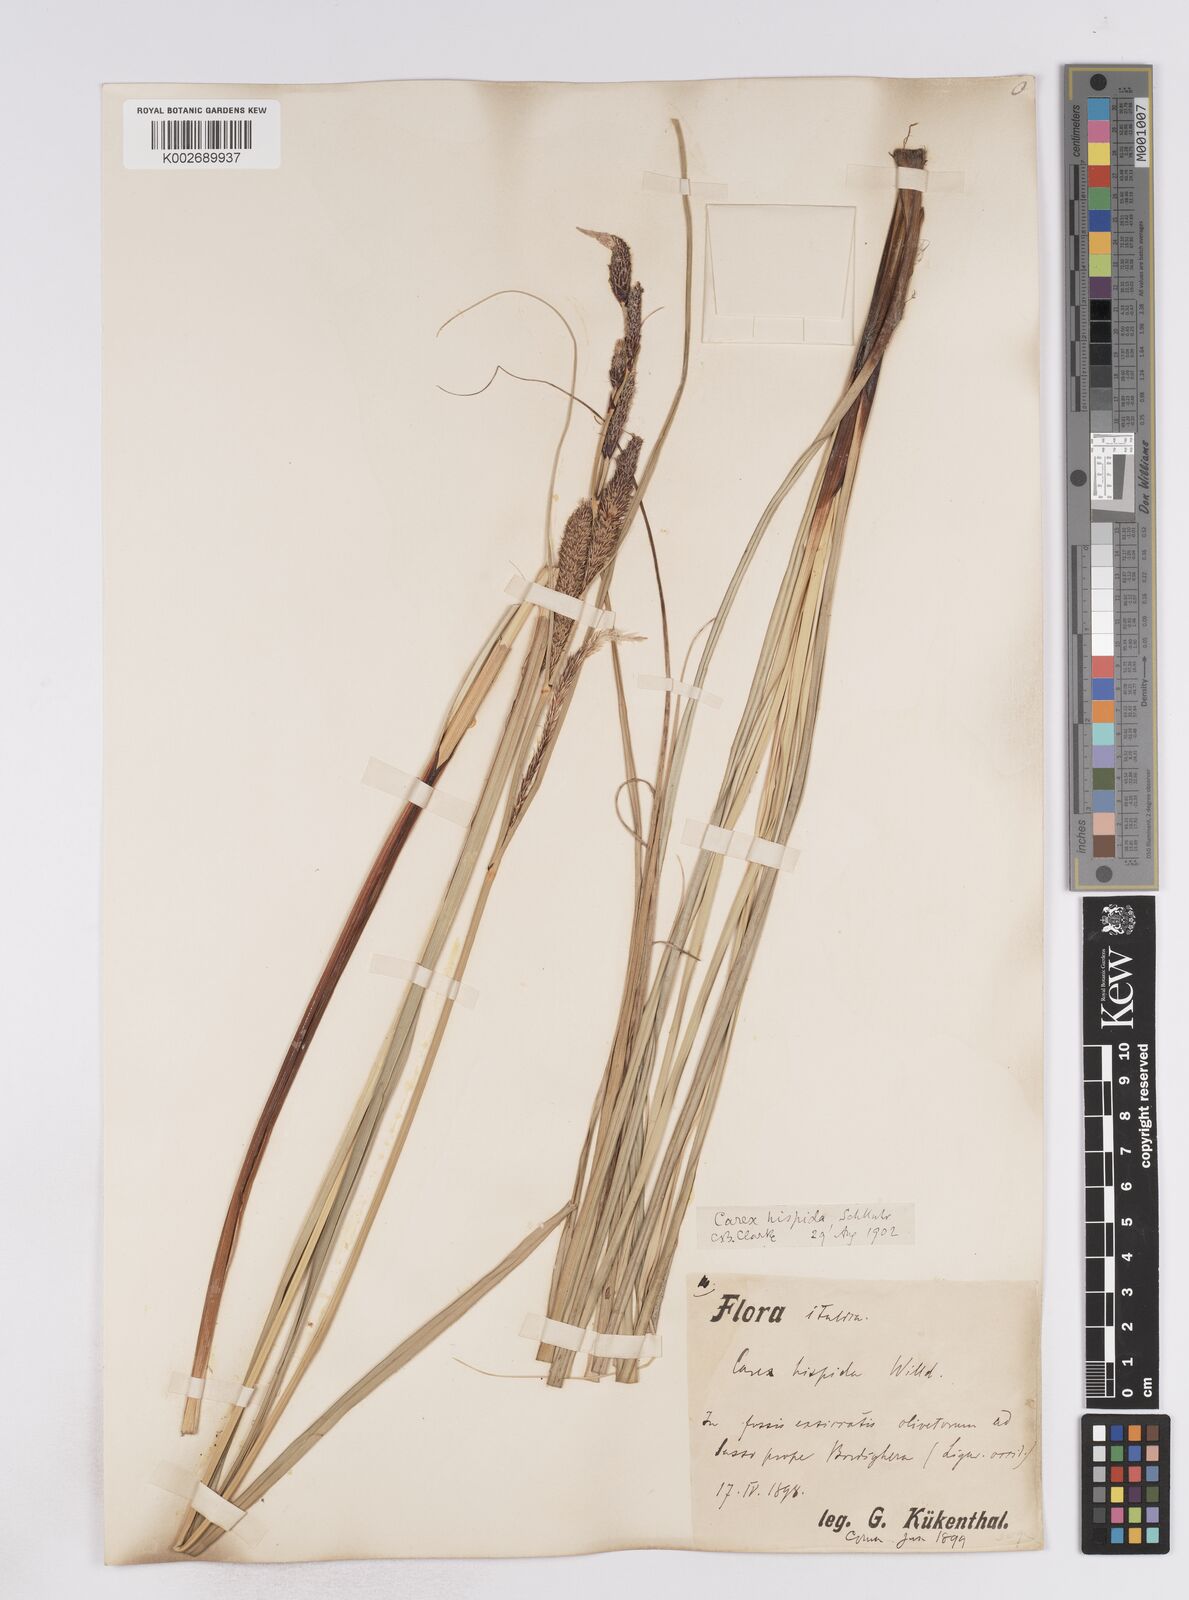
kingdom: Plantae
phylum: Tracheophyta
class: Liliopsida
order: Poales
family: Cyperaceae
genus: Carex
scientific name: Carex hispida
